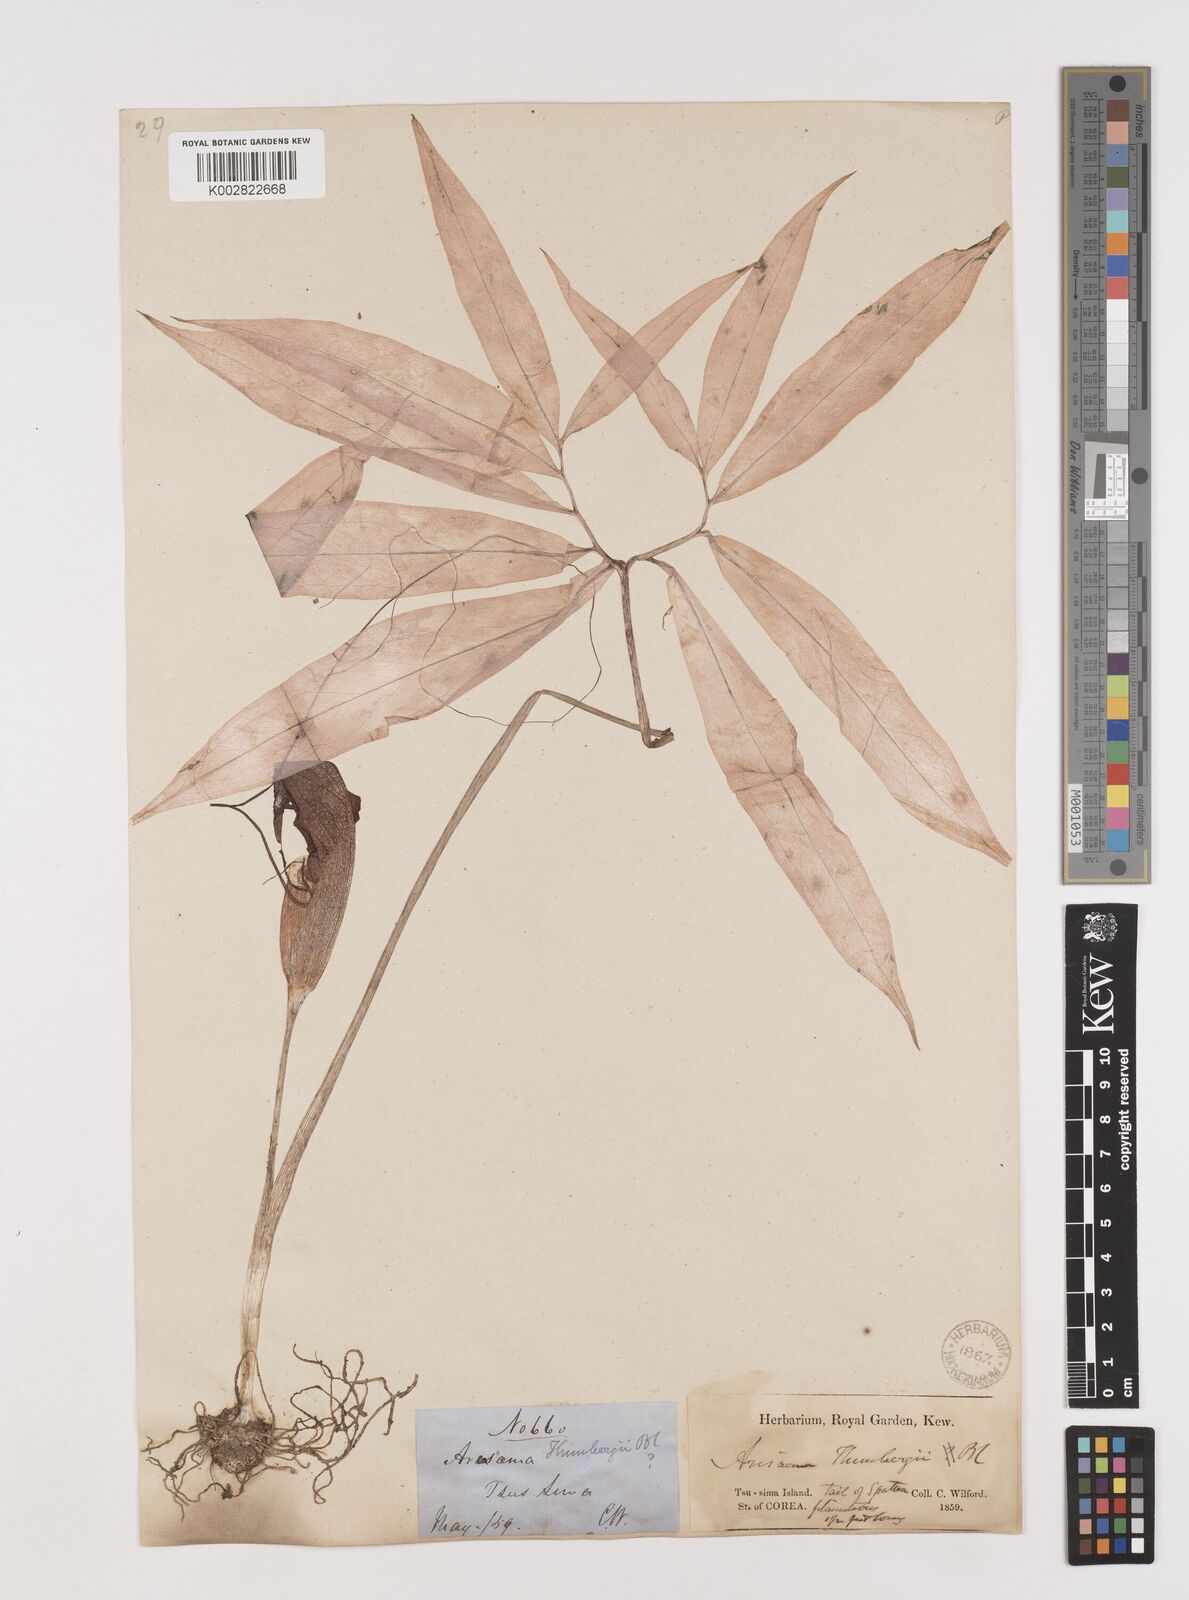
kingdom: Plantae
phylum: Tracheophyta
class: Liliopsida
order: Alismatales
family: Araceae
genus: Arisaema
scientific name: Arisaema thunbergii
